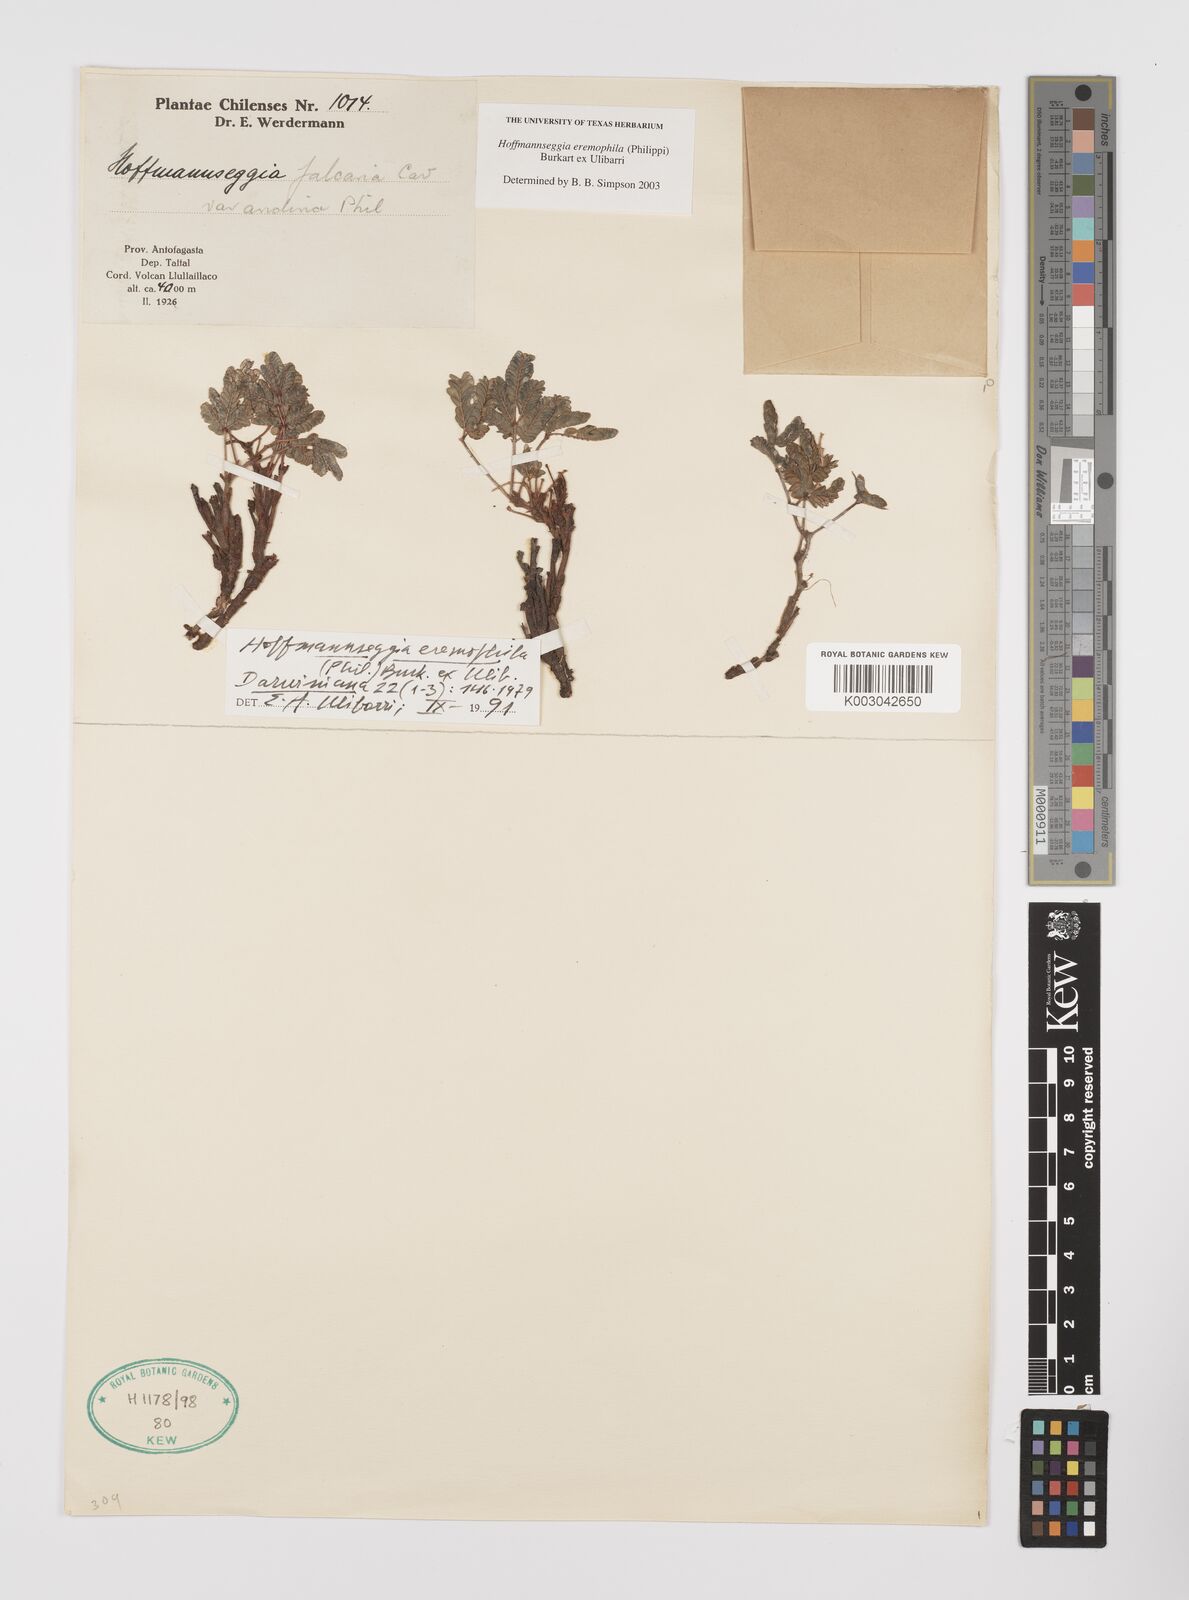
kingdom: Plantae
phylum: Tracheophyta
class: Magnoliopsida
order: Fabales
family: Fabaceae
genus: Hoffmannseggia
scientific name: Hoffmannseggia eremophila
